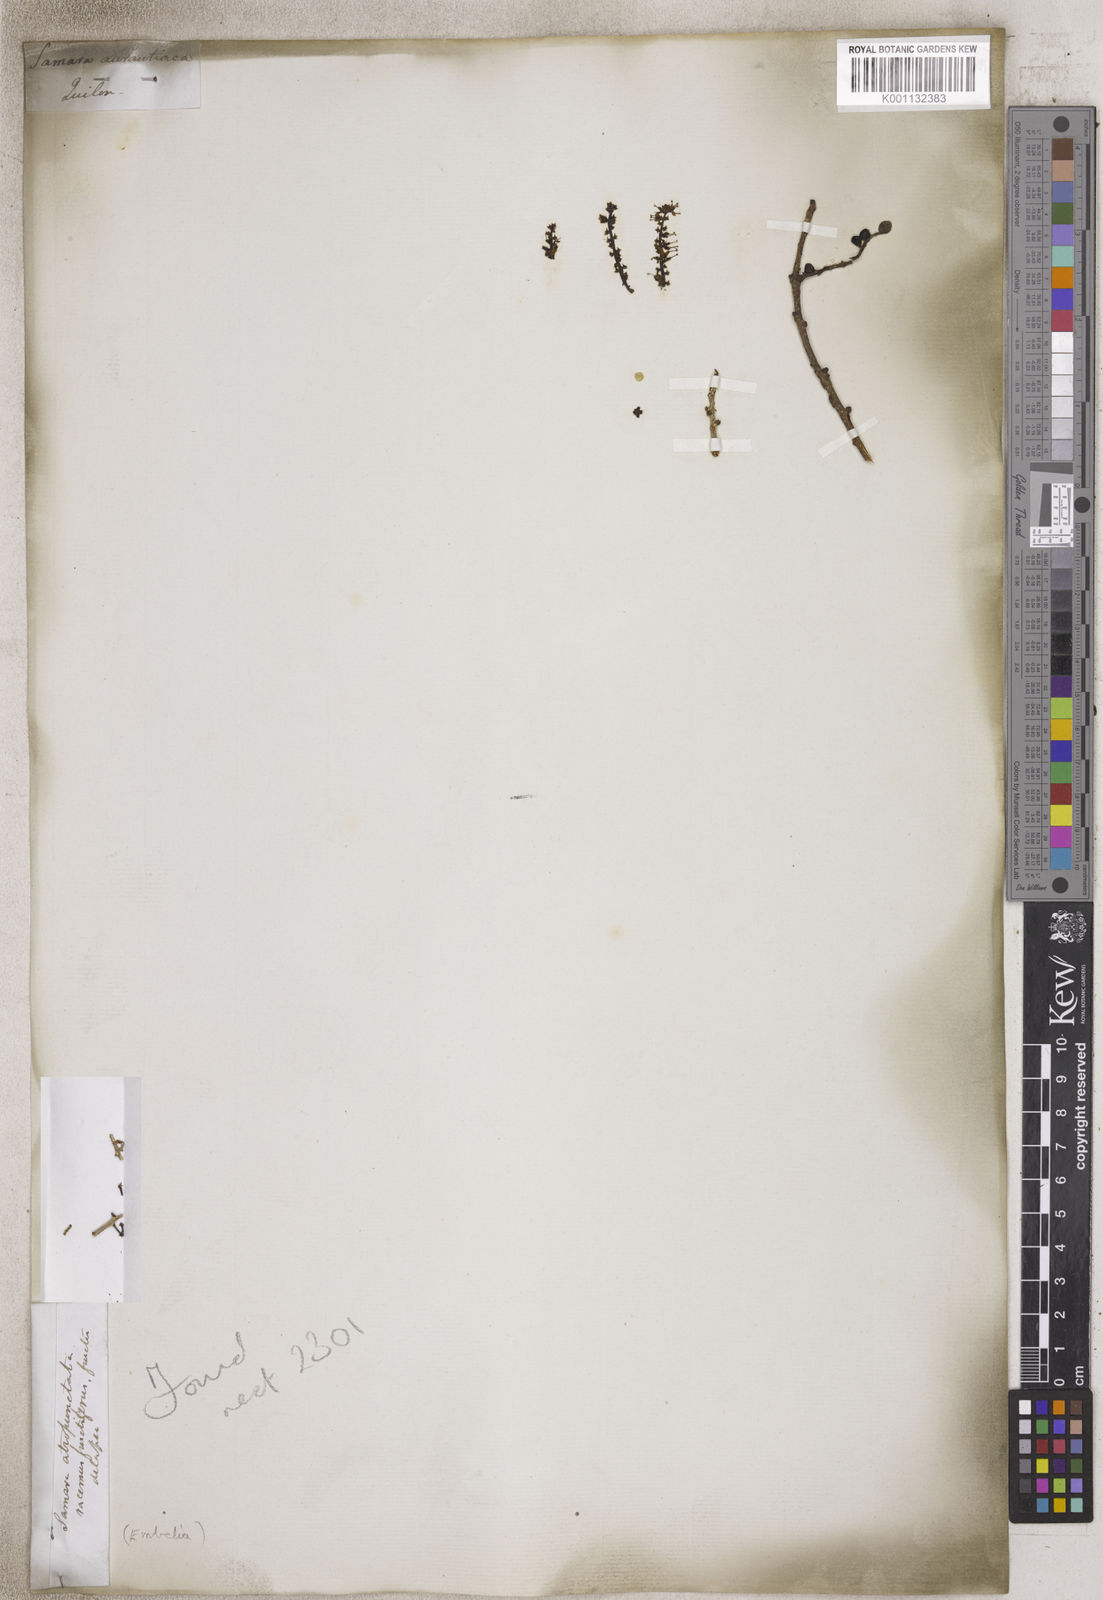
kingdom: Plantae
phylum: Tracheophyta
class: Magnoliopsida
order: Ericales
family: Primulaceae
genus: Embelia
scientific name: Embelia
